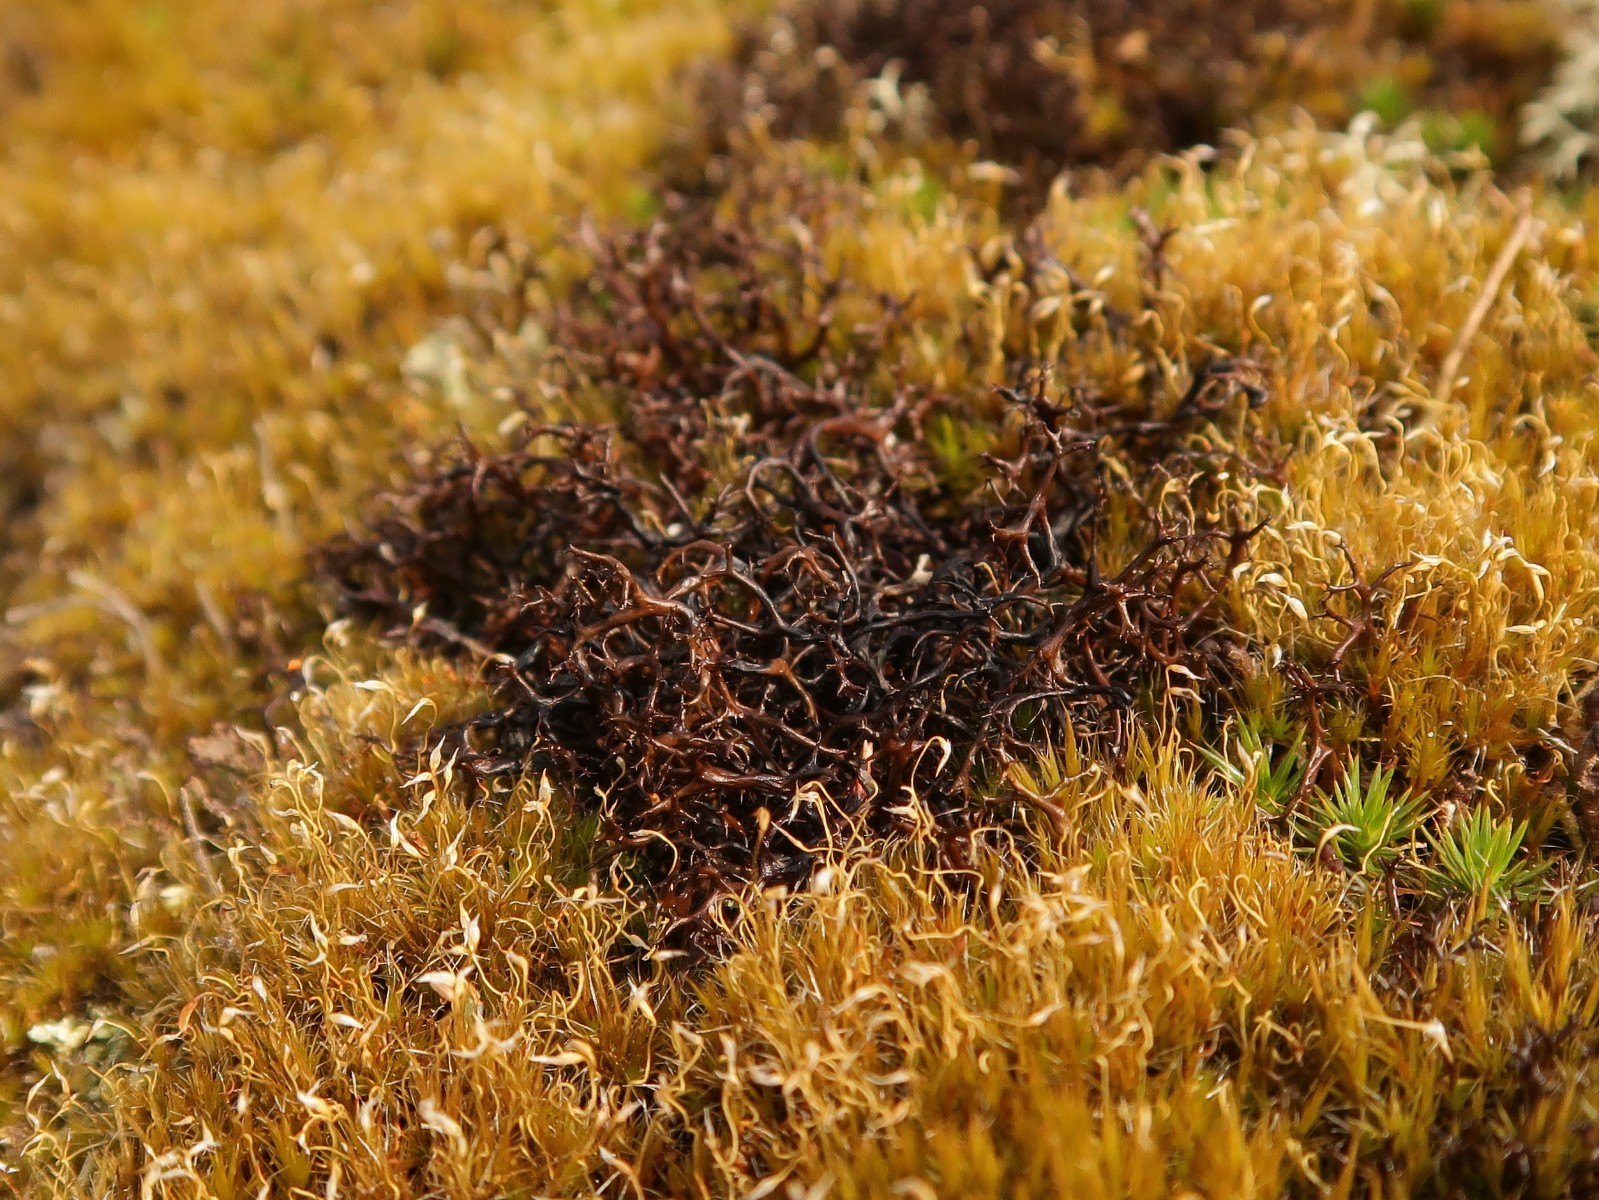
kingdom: Fungi
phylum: Ascomycota
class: Lecanoromycetes
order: Lecanorales
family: Parmeliaceae
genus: Cetraria
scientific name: Cetraria muricata
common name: tue-tjørnelav
